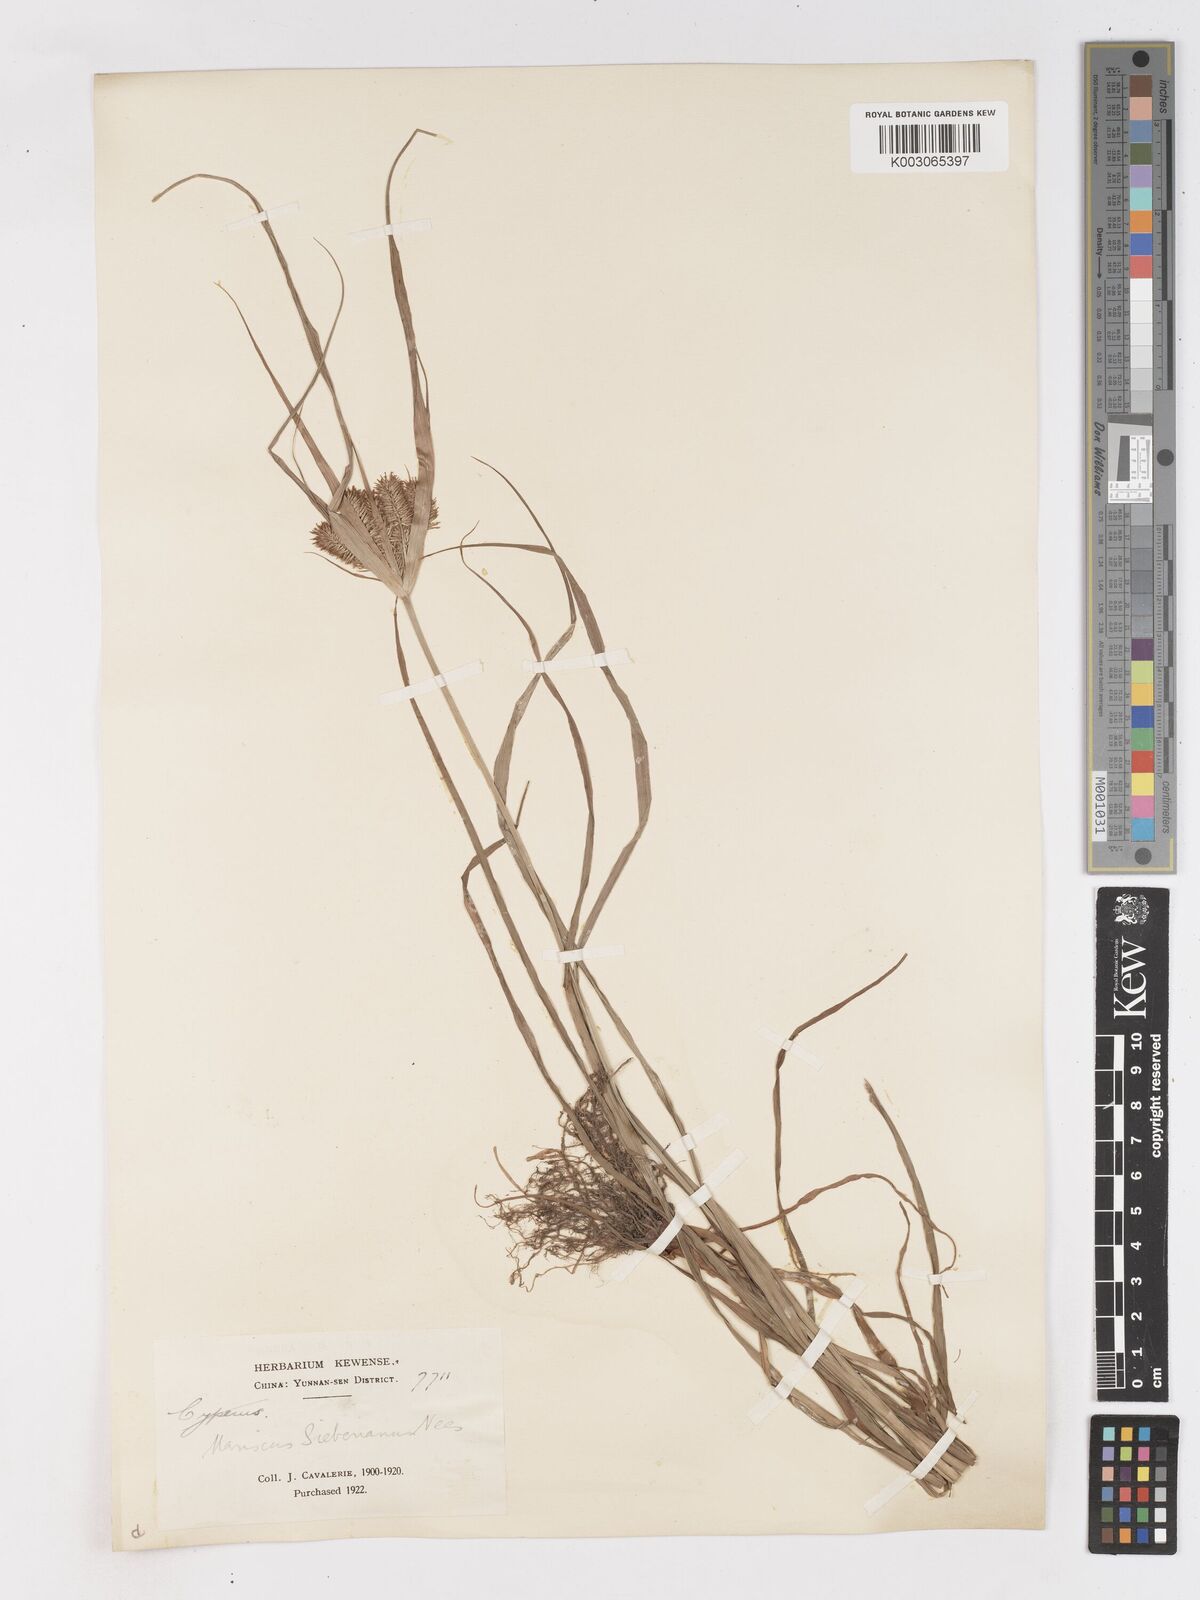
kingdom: Plantae
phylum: Tracheophyta
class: Liliopsida
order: Poales
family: Cyperaceae
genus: Cyperus
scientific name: Cyperus cyperoides
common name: Pacific island flat sedge
